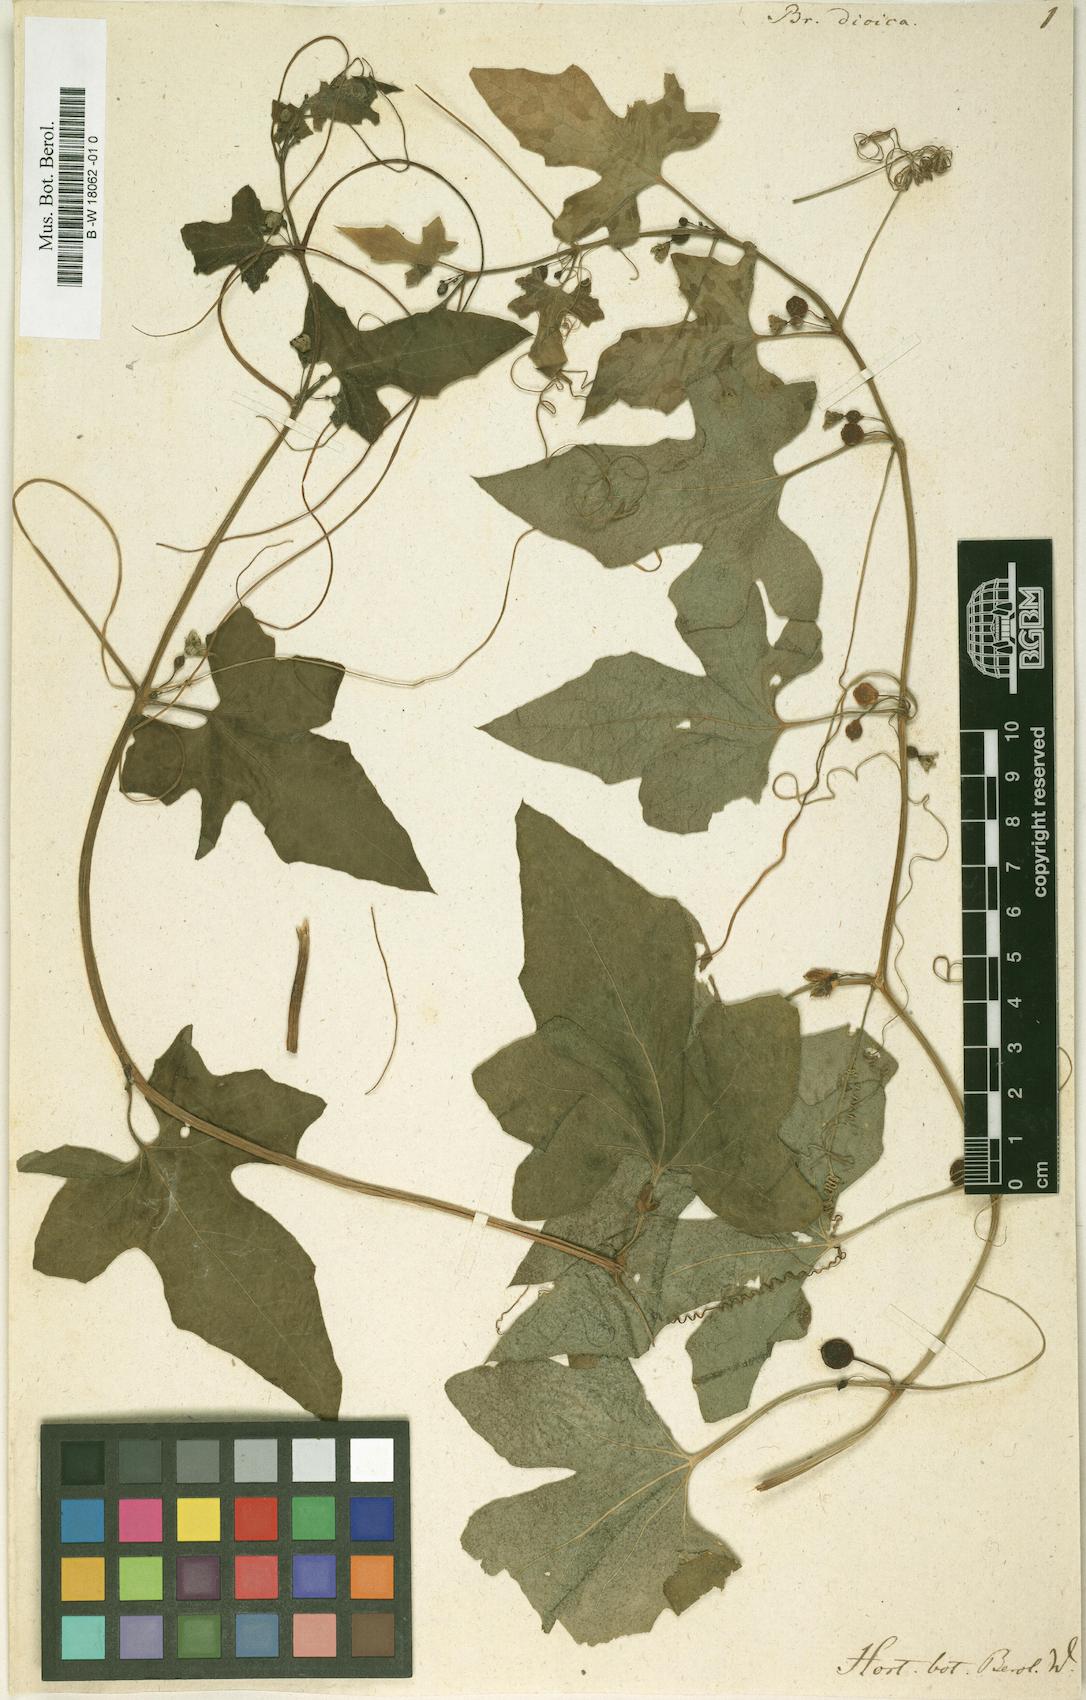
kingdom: Plantae
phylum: Tracheophyta
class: Magnoliopsida
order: Cucurbitales
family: Cucurbitaceae
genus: Bryonia
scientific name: Bryonia dioica
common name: White bryony
